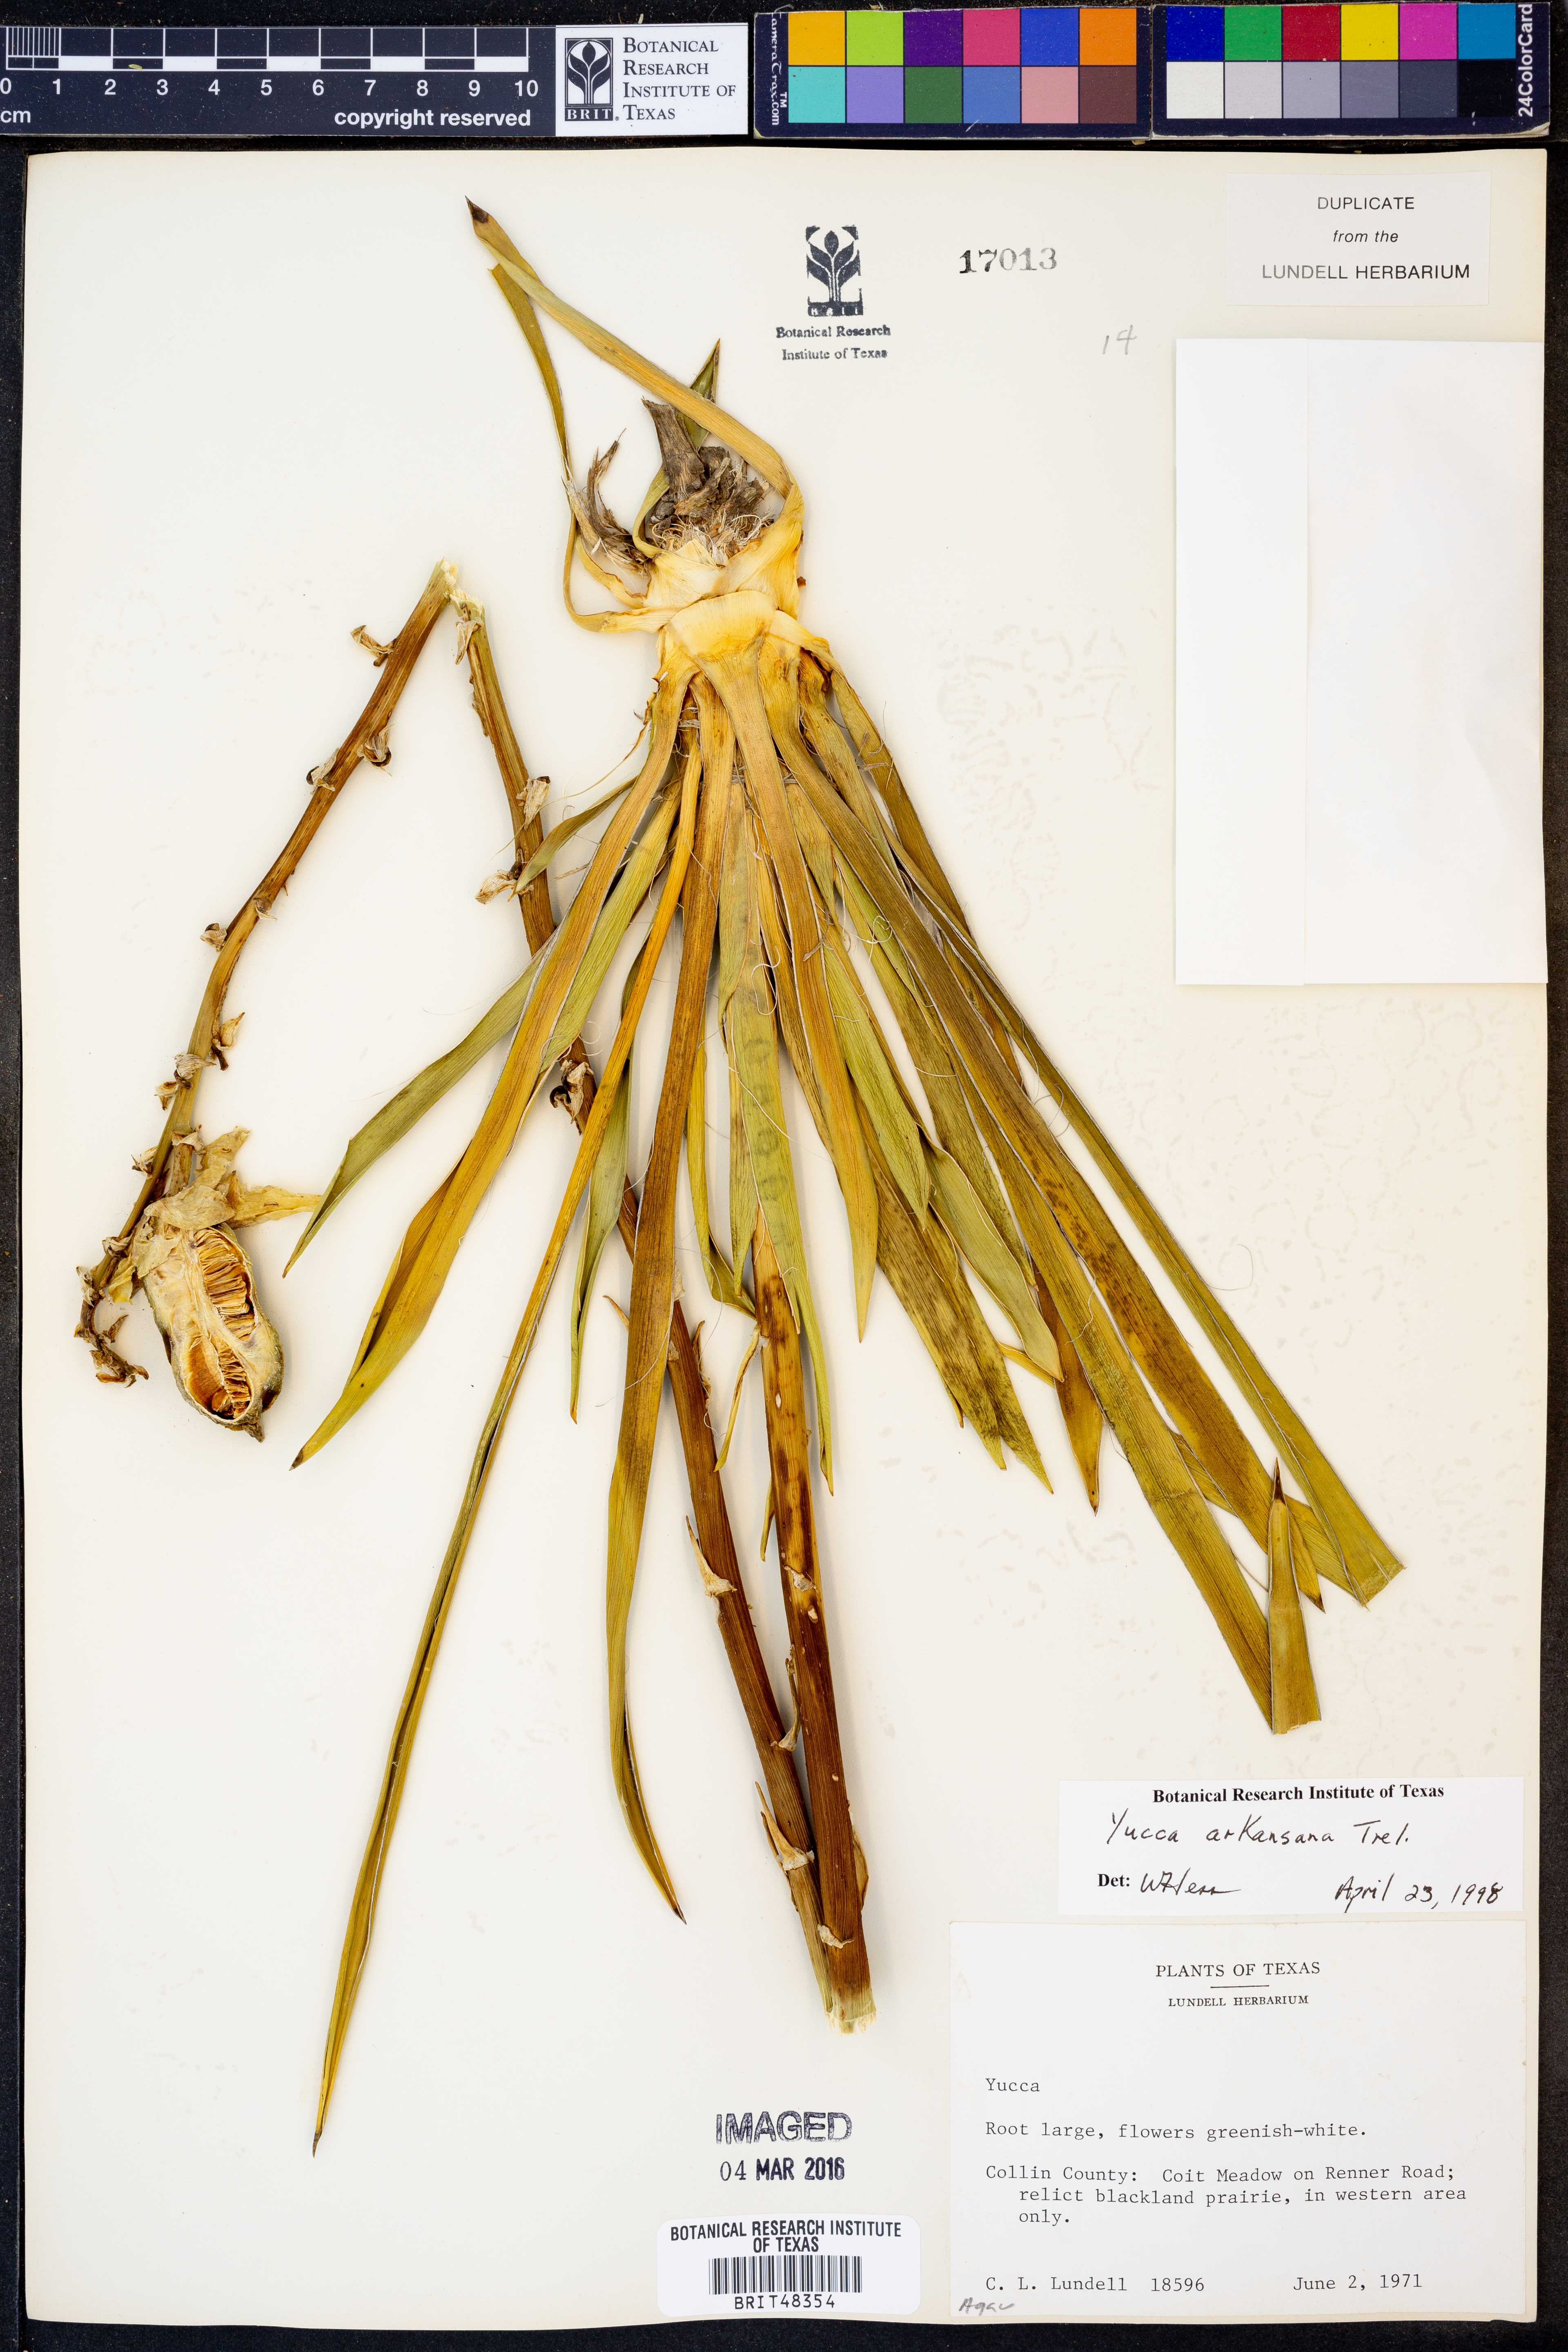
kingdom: Plantae
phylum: Tracheophyta
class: Liliopsida
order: Asparagales
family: Asparagaceae
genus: Yucca
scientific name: Yucca arkansana
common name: Arkansas yucca
